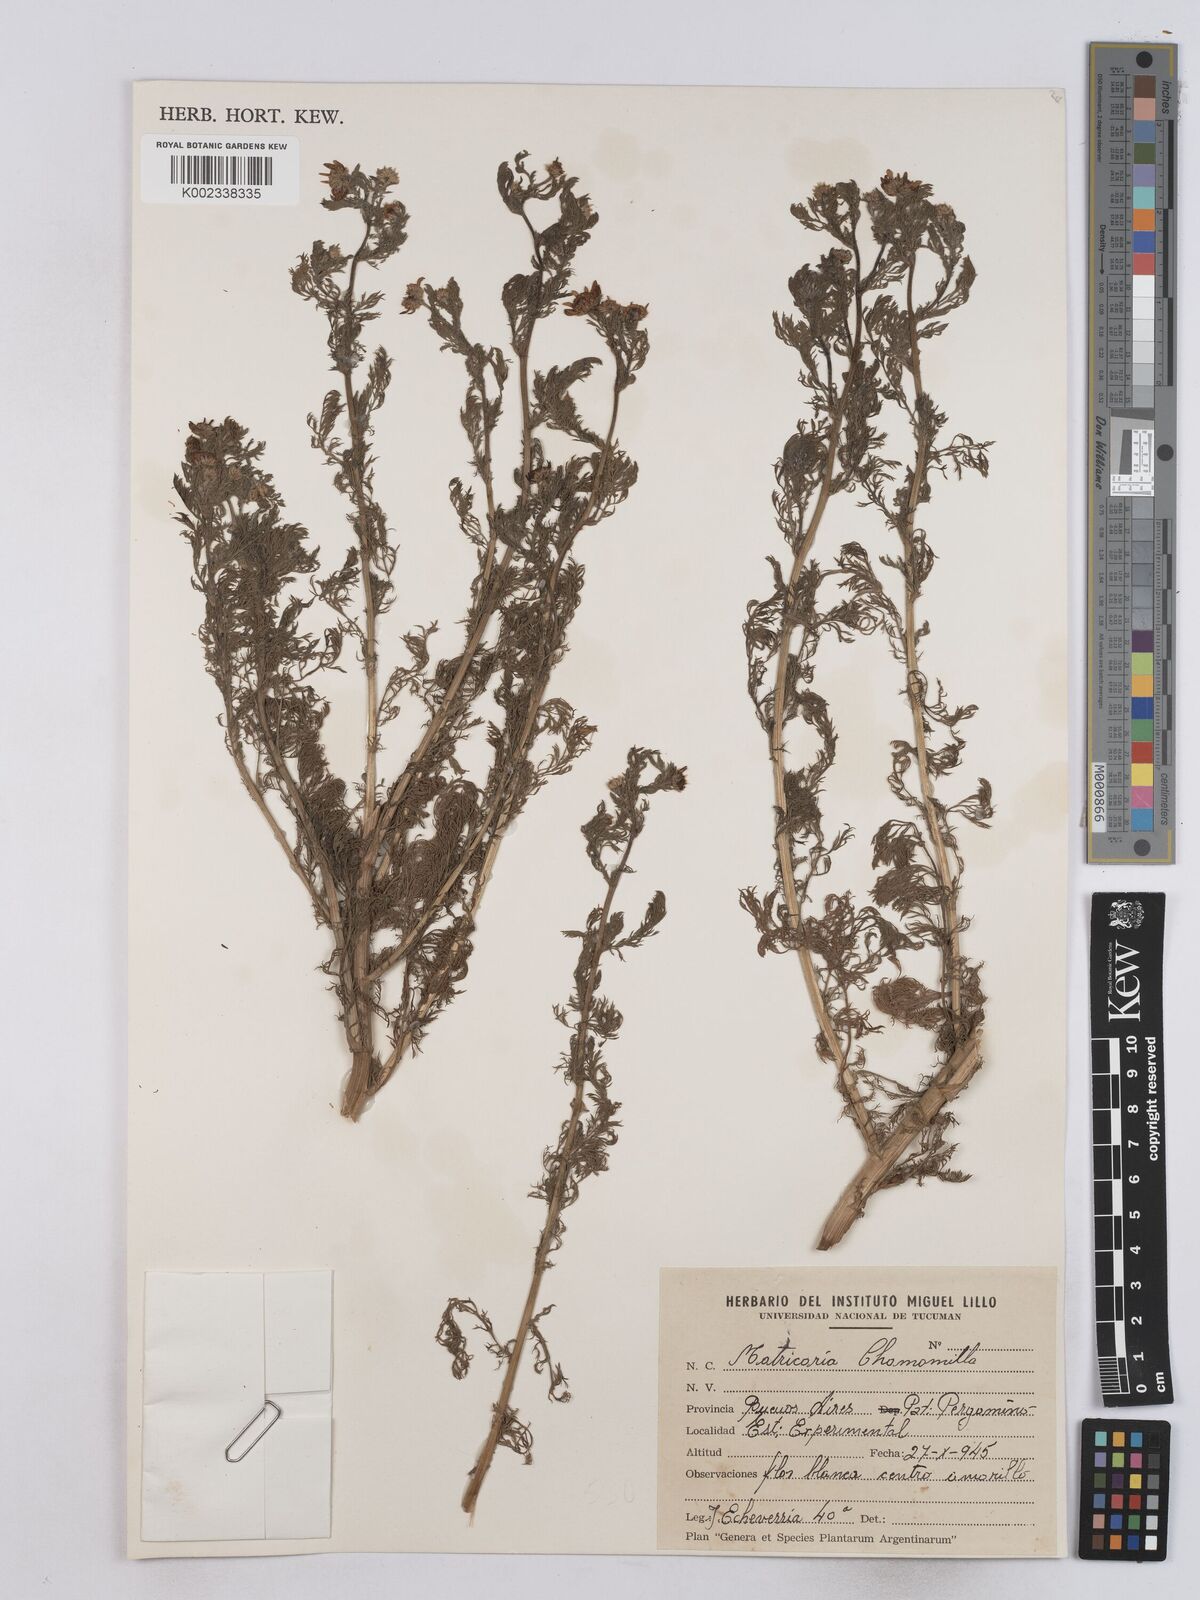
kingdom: Plantae
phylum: Tracheophyta
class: Magnoliopsida
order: Asterales
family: Asteraceae
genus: Matricaria
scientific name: Matricaria chamomilla
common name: Scented mayweed
